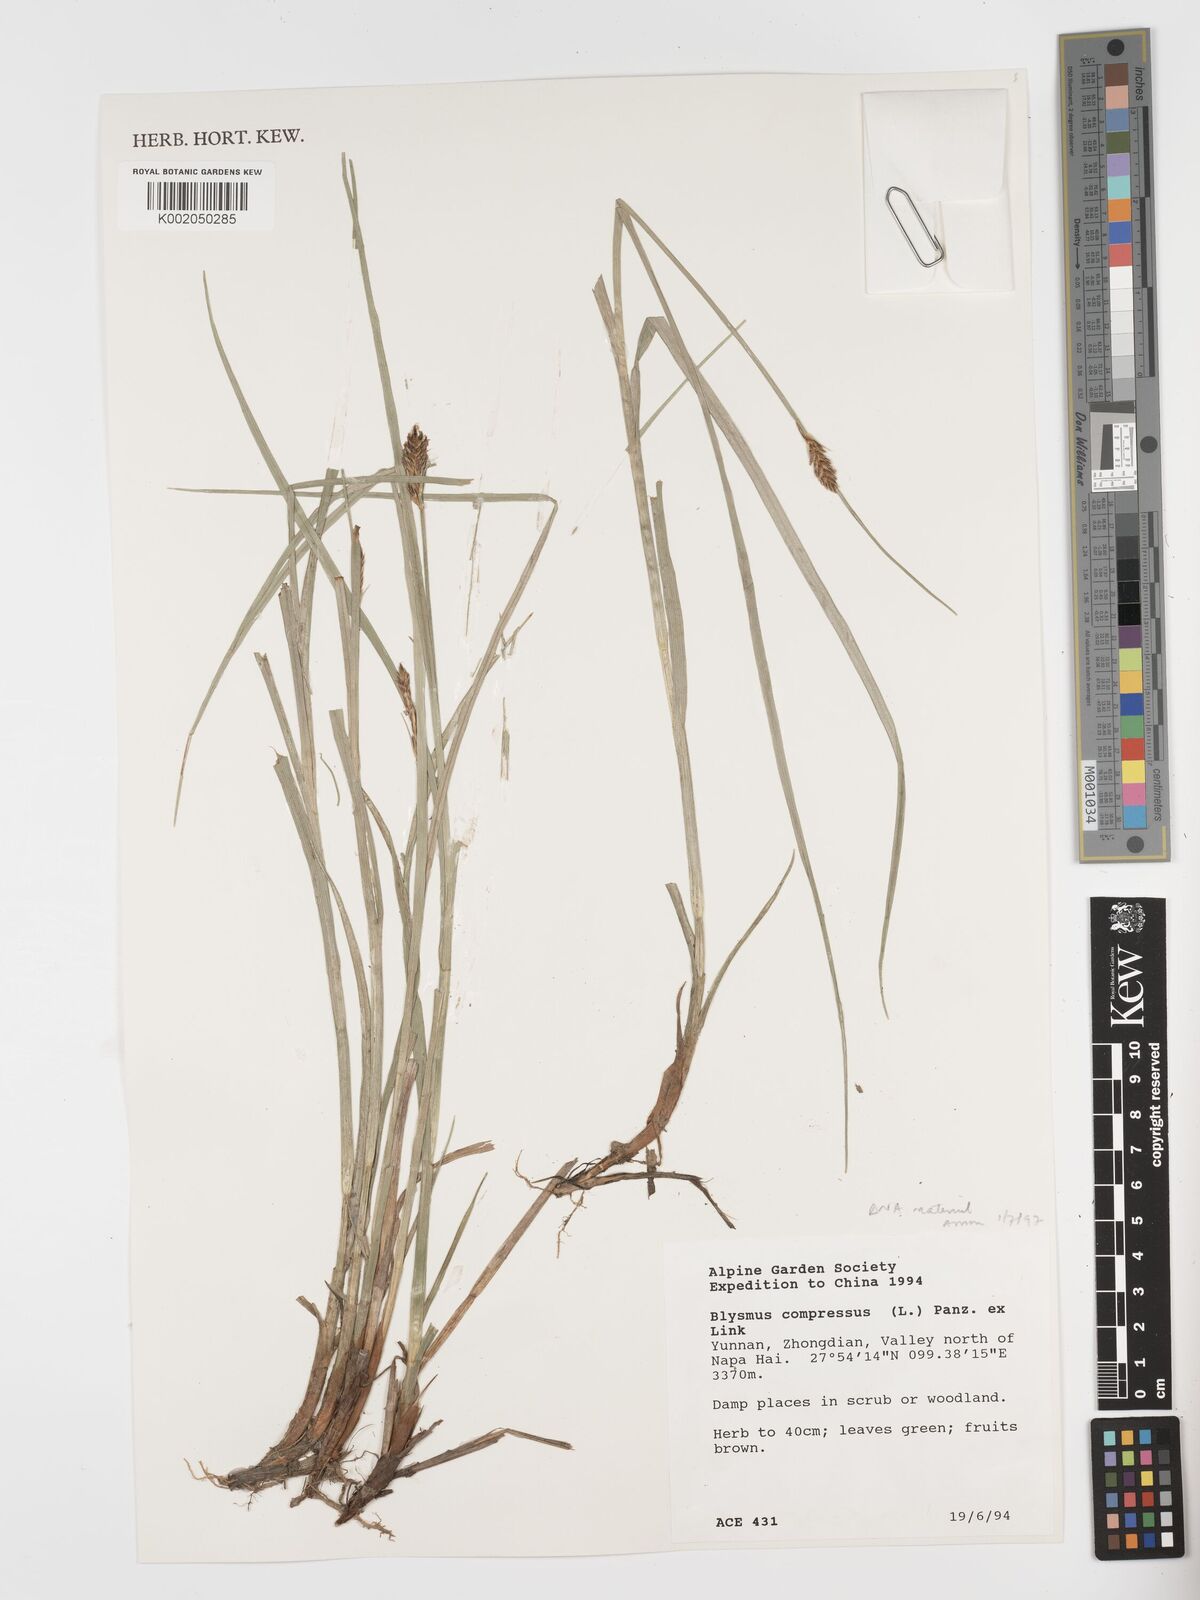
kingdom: Plantae
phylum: Tracheophyta
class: Liliopsida
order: Poales
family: Cyperaceae
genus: Blysmus
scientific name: Blysmus compressus
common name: Flat-sedge
